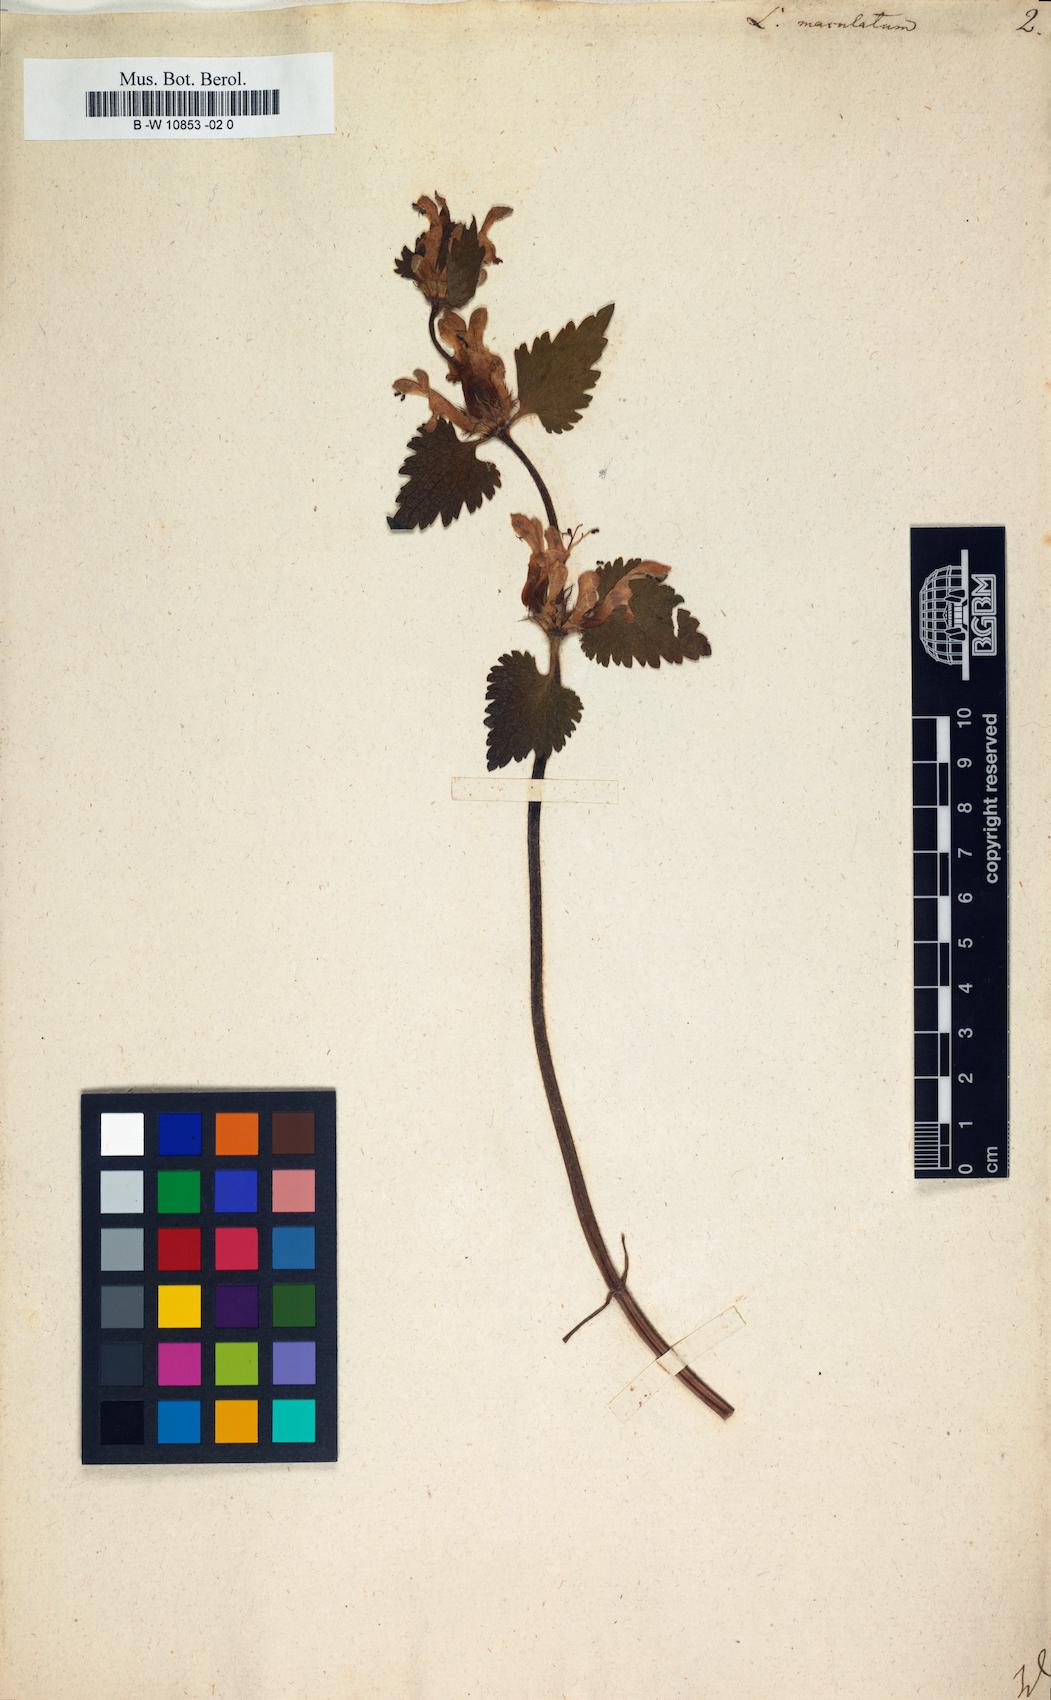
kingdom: Plantae
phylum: Tracheophyta
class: Magnoliopsida
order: Lamiales
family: Lamiaceae
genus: Lamium
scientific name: Lamium maculatum
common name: Spotted dead-nettle
